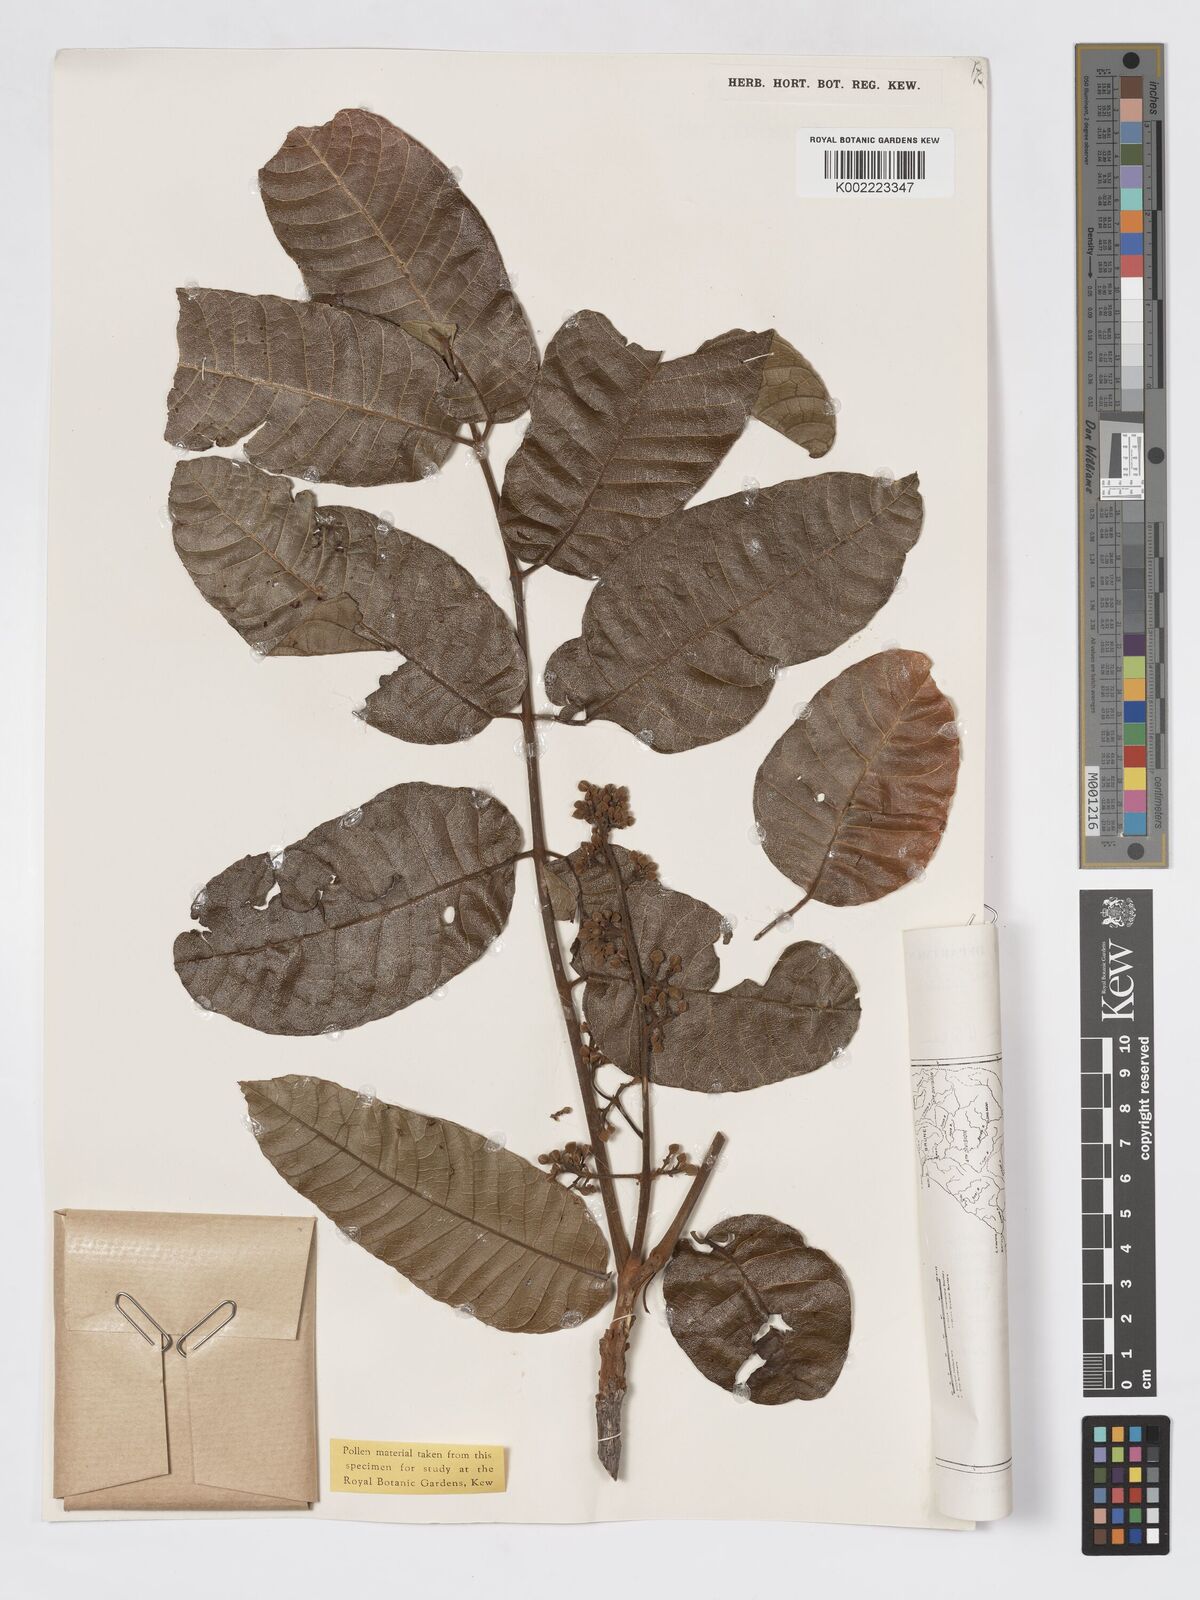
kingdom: Plantae
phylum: Tracheophyta
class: Magnoliopsida
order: Sapindales
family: Burseraceae
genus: Canarium
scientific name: Canarium apertum
